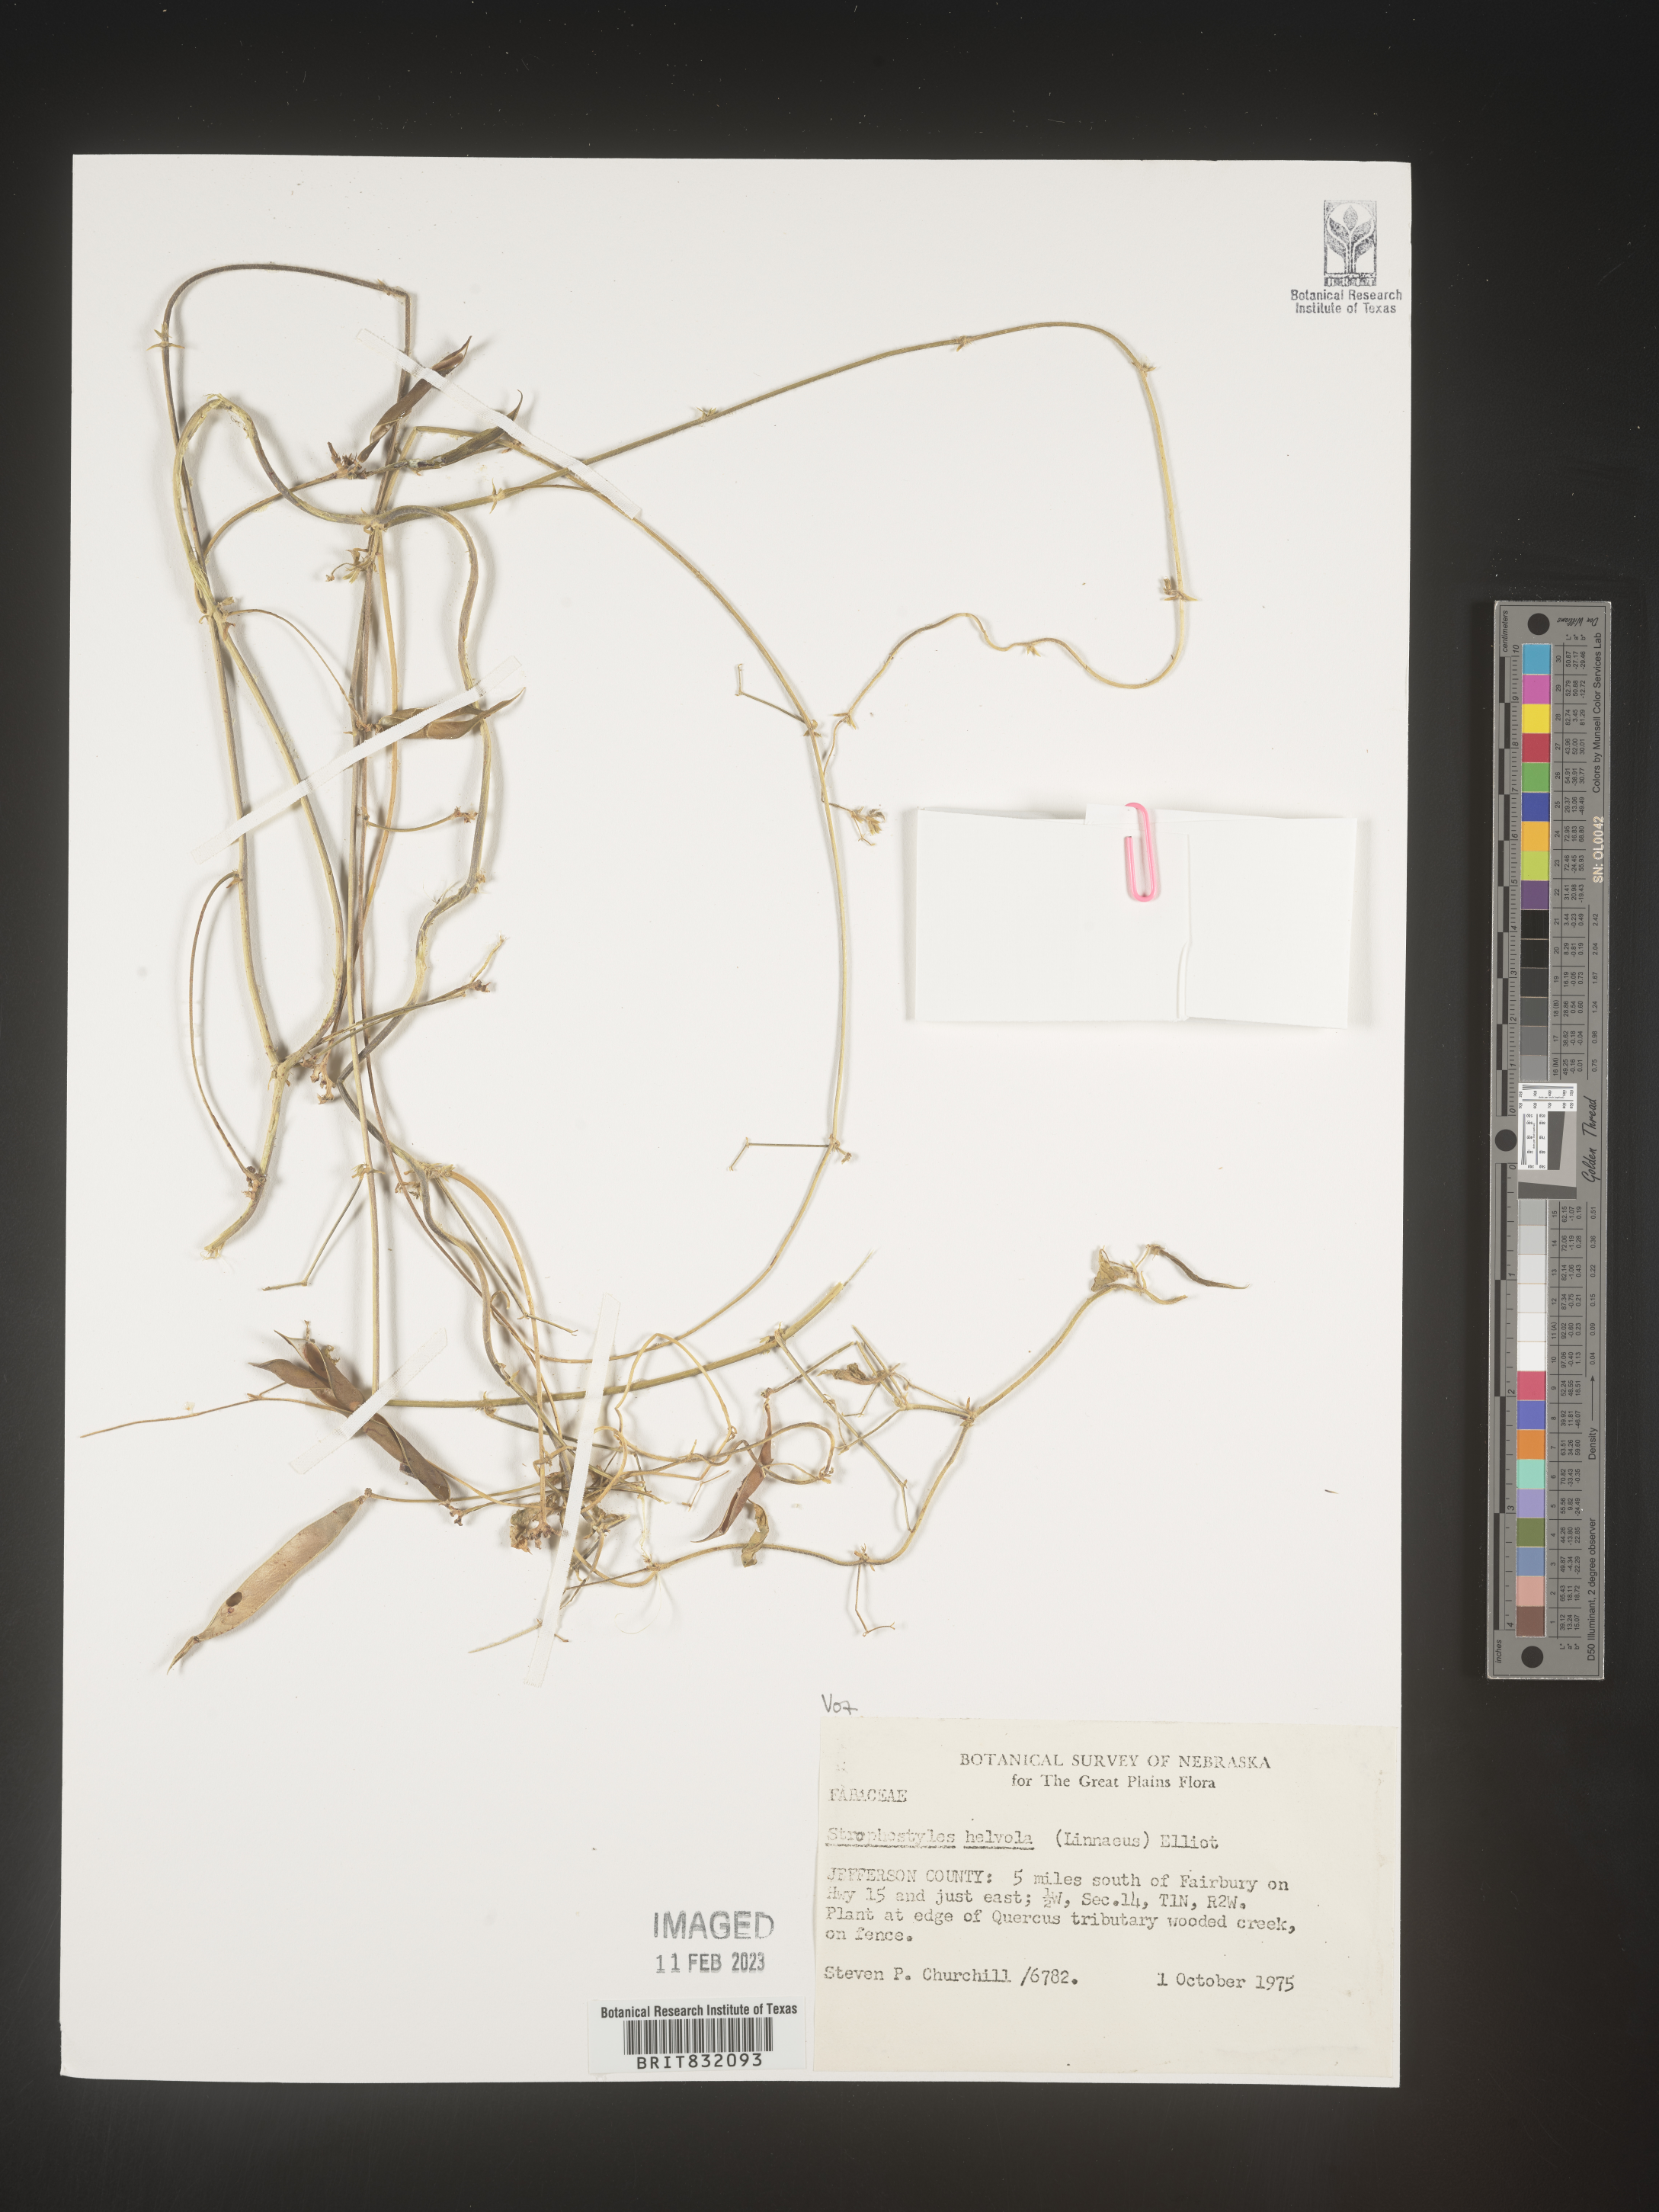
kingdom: Plantae
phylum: Tracheophyta
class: Magnoliopsida
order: Fabales
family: Fabaceae
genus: Strophostyles
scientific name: Strophostyles helvola
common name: Trailing wild bean
